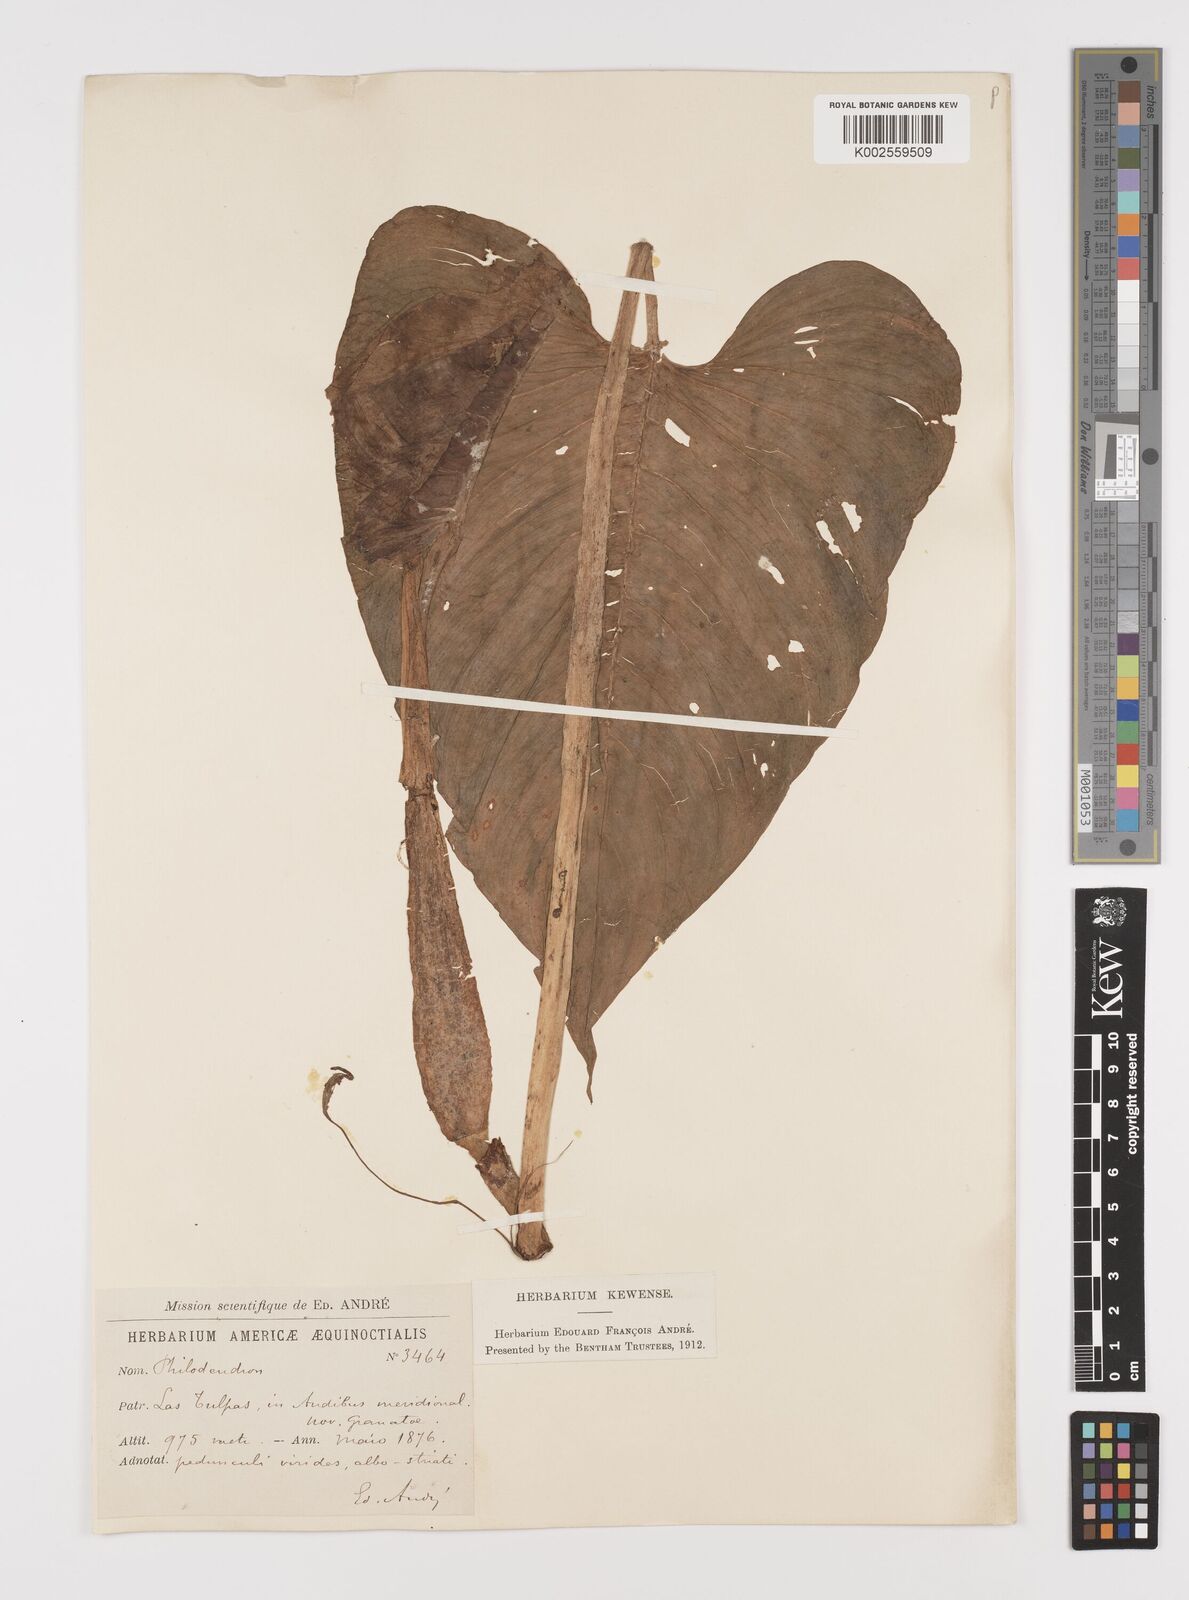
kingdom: Plantae
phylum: Tracheophyta
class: Liliopsida
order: Alismatales
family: Araceae
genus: Philodendron
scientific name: Philodendron
